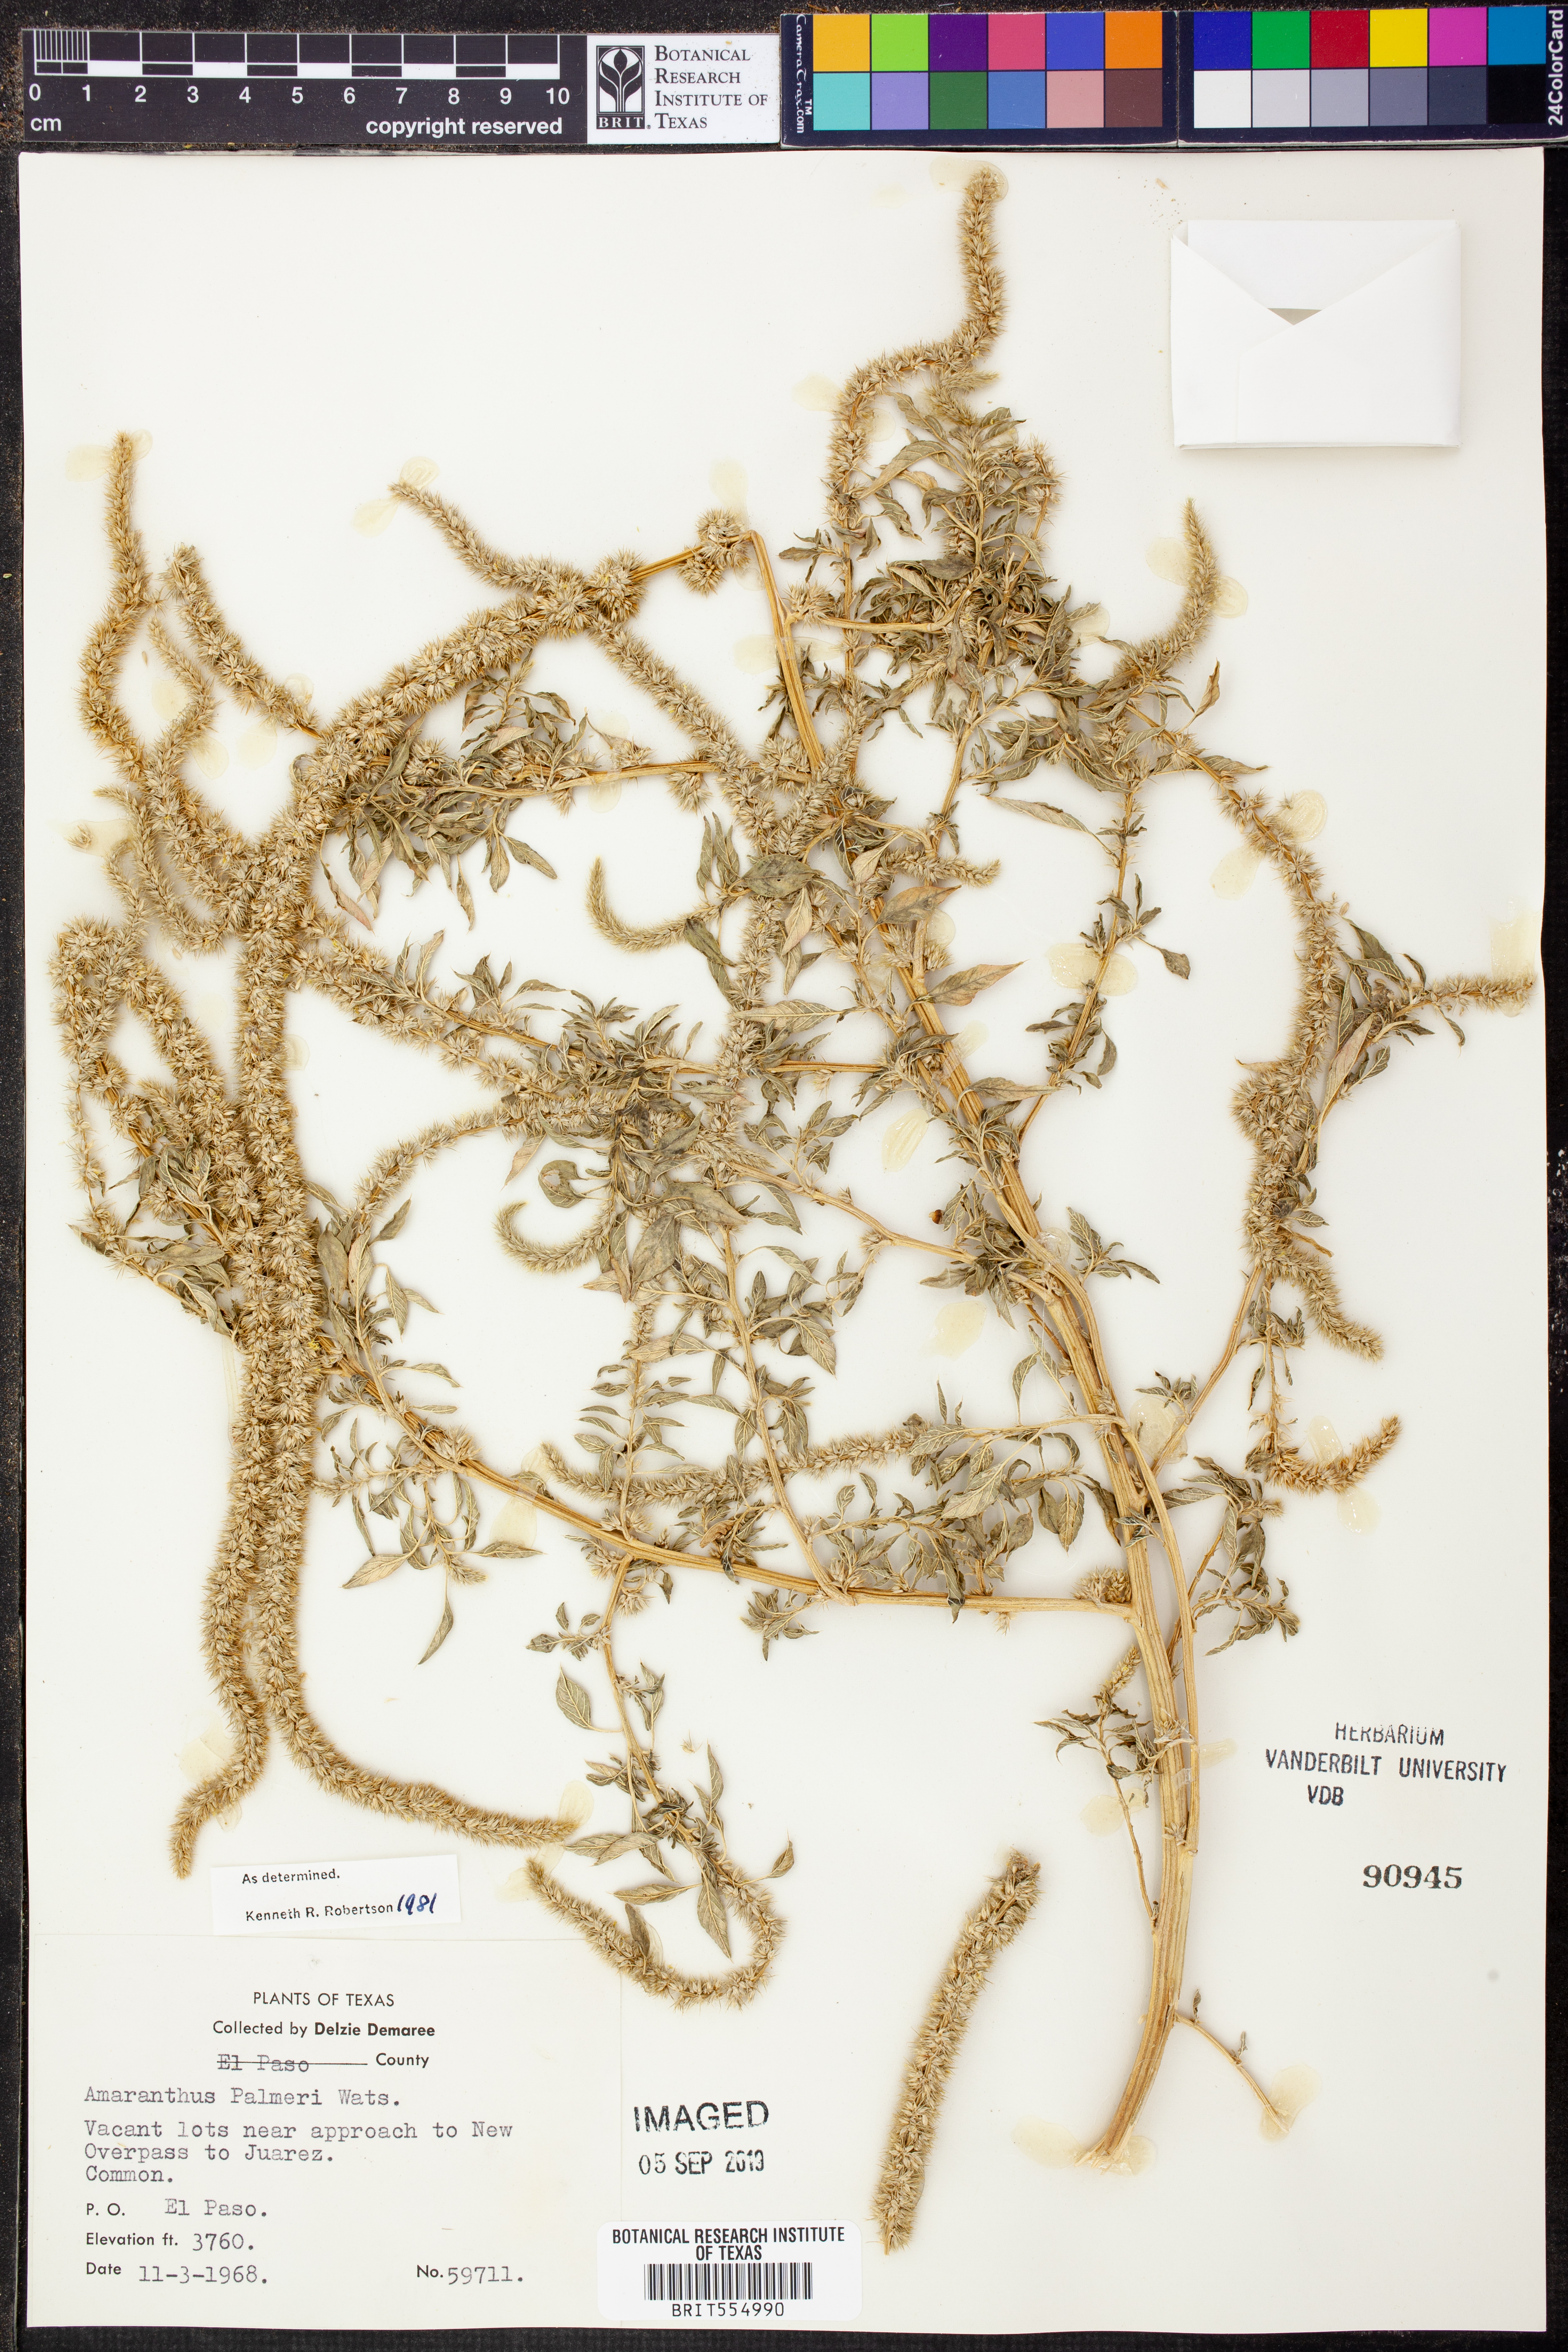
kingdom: Plantae
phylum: Tracheophyta
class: Magnoliopsida
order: Caryophyllales
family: Amaranthaceae
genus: Amaranthus
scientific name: Amaranthus palmeri
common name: Dioecious amaranth
